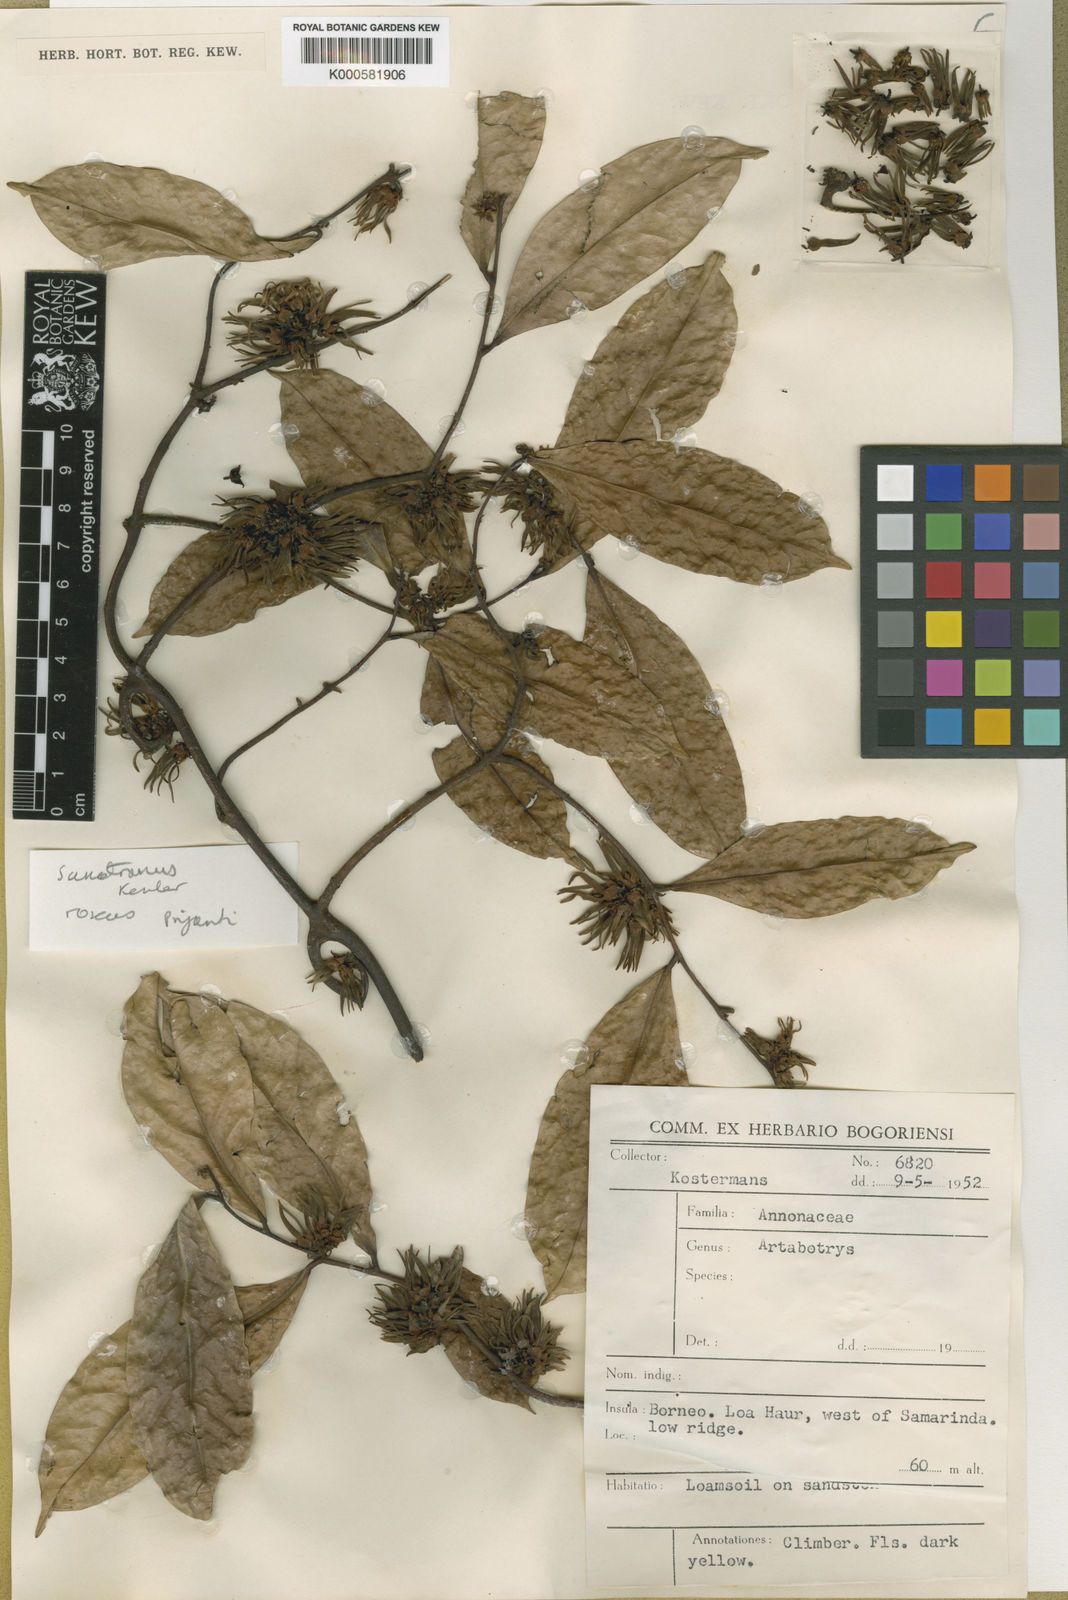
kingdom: Plantae
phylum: Tracheophyta
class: Magnoliopsida
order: Magnoliales
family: Annonaceae
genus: Artabotrys
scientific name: Artabotrys
